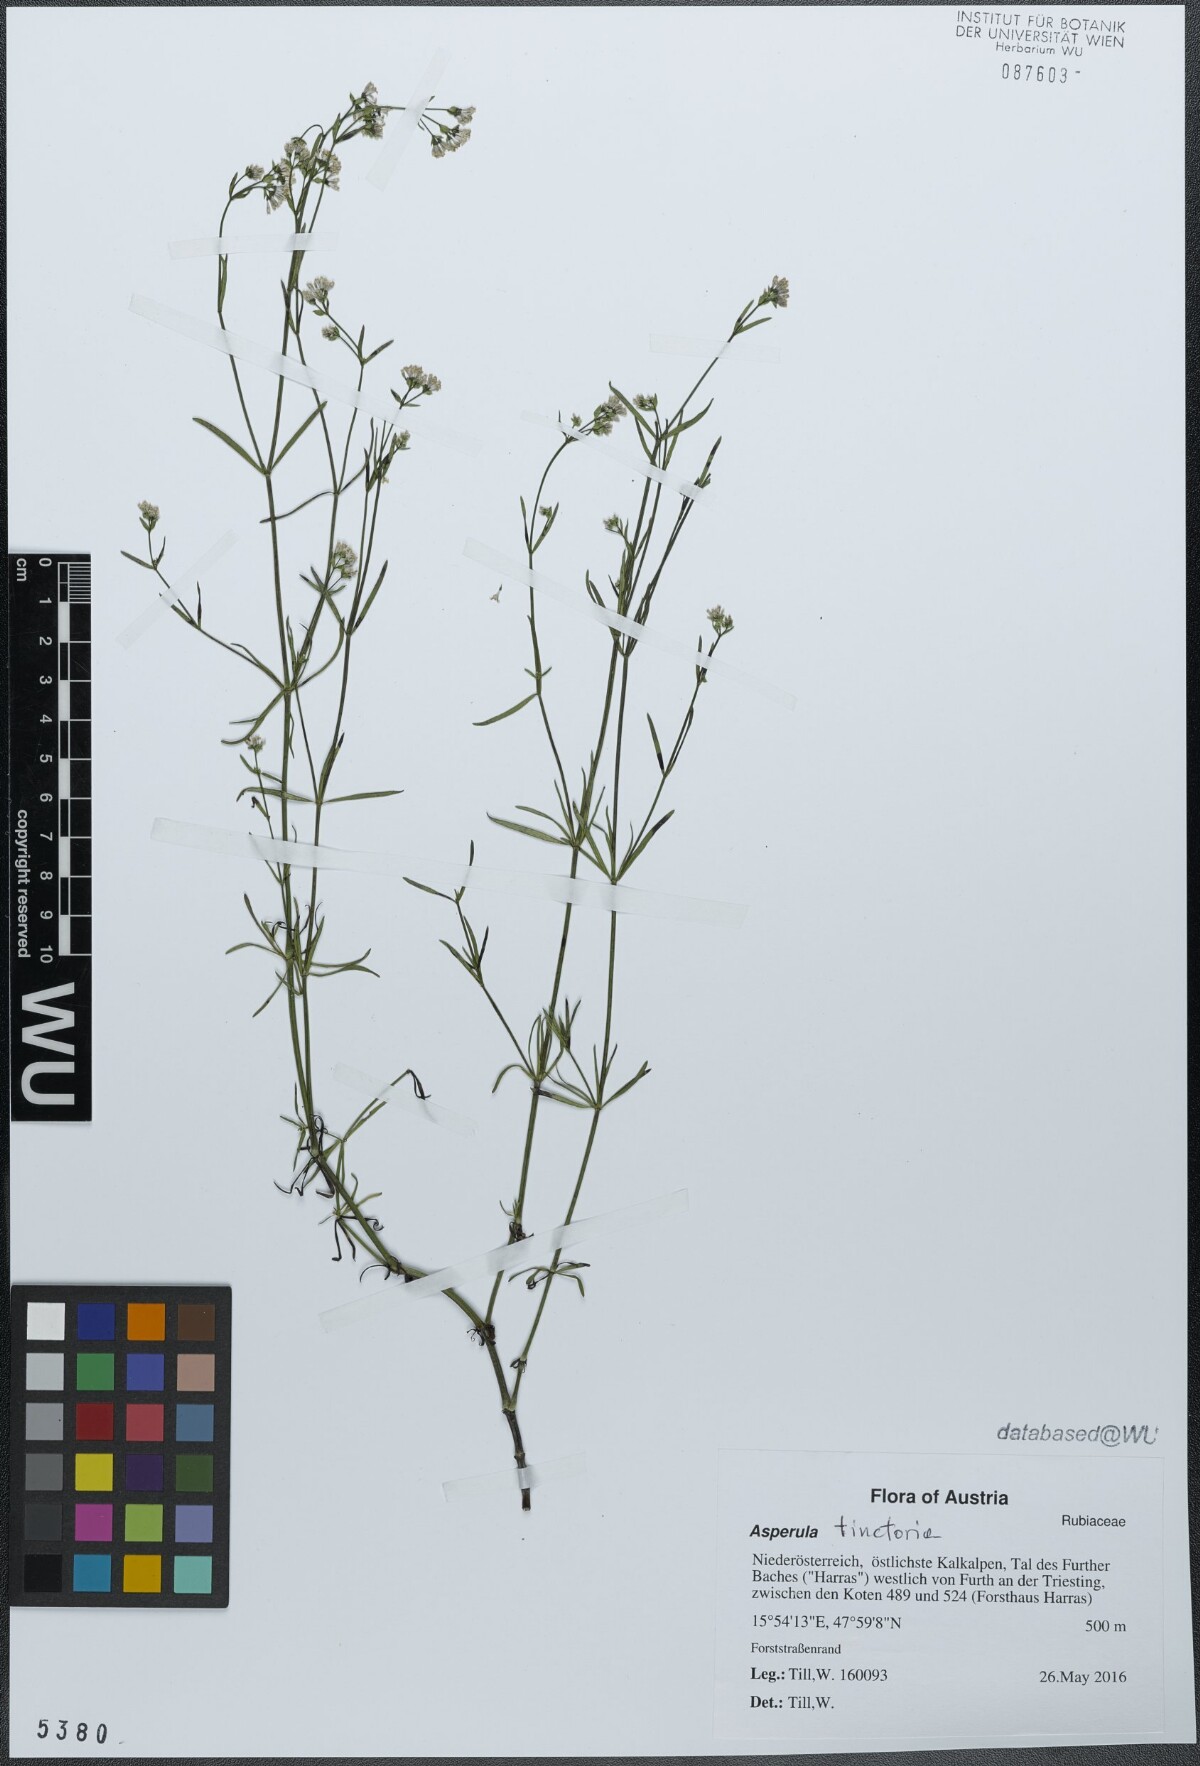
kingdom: Plantae
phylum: Tracheophyta
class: Magnoliopsida
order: Gentianales
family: Rubiaceae
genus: Asperula
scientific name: Asperula tinctoria
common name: Dyer's woodruff
